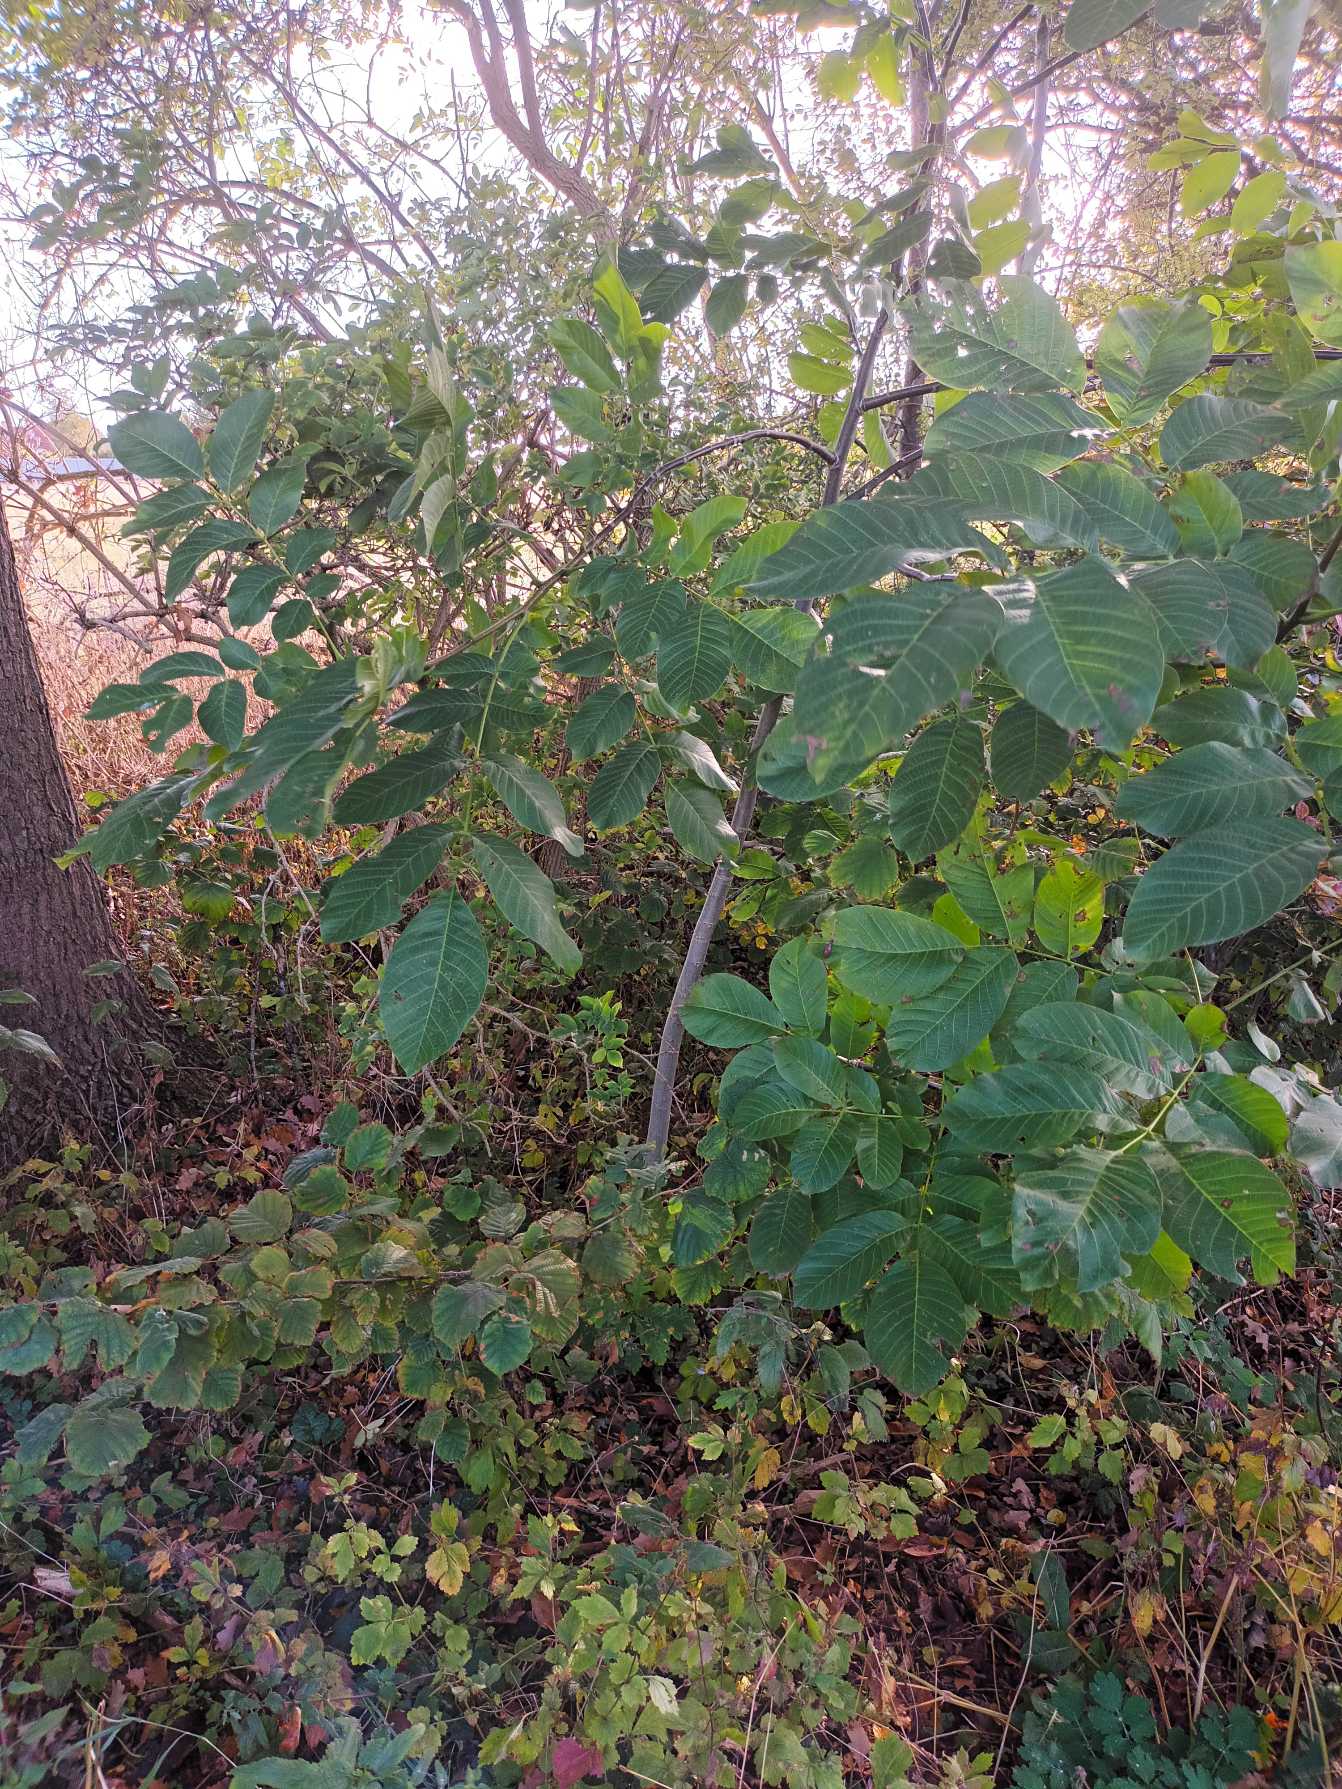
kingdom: Plantae
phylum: Tracheophyta
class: Magnoliopsida
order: Fagales
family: Juglandaceae
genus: Juglans
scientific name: Juglans regia
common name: Almindelig valnød
